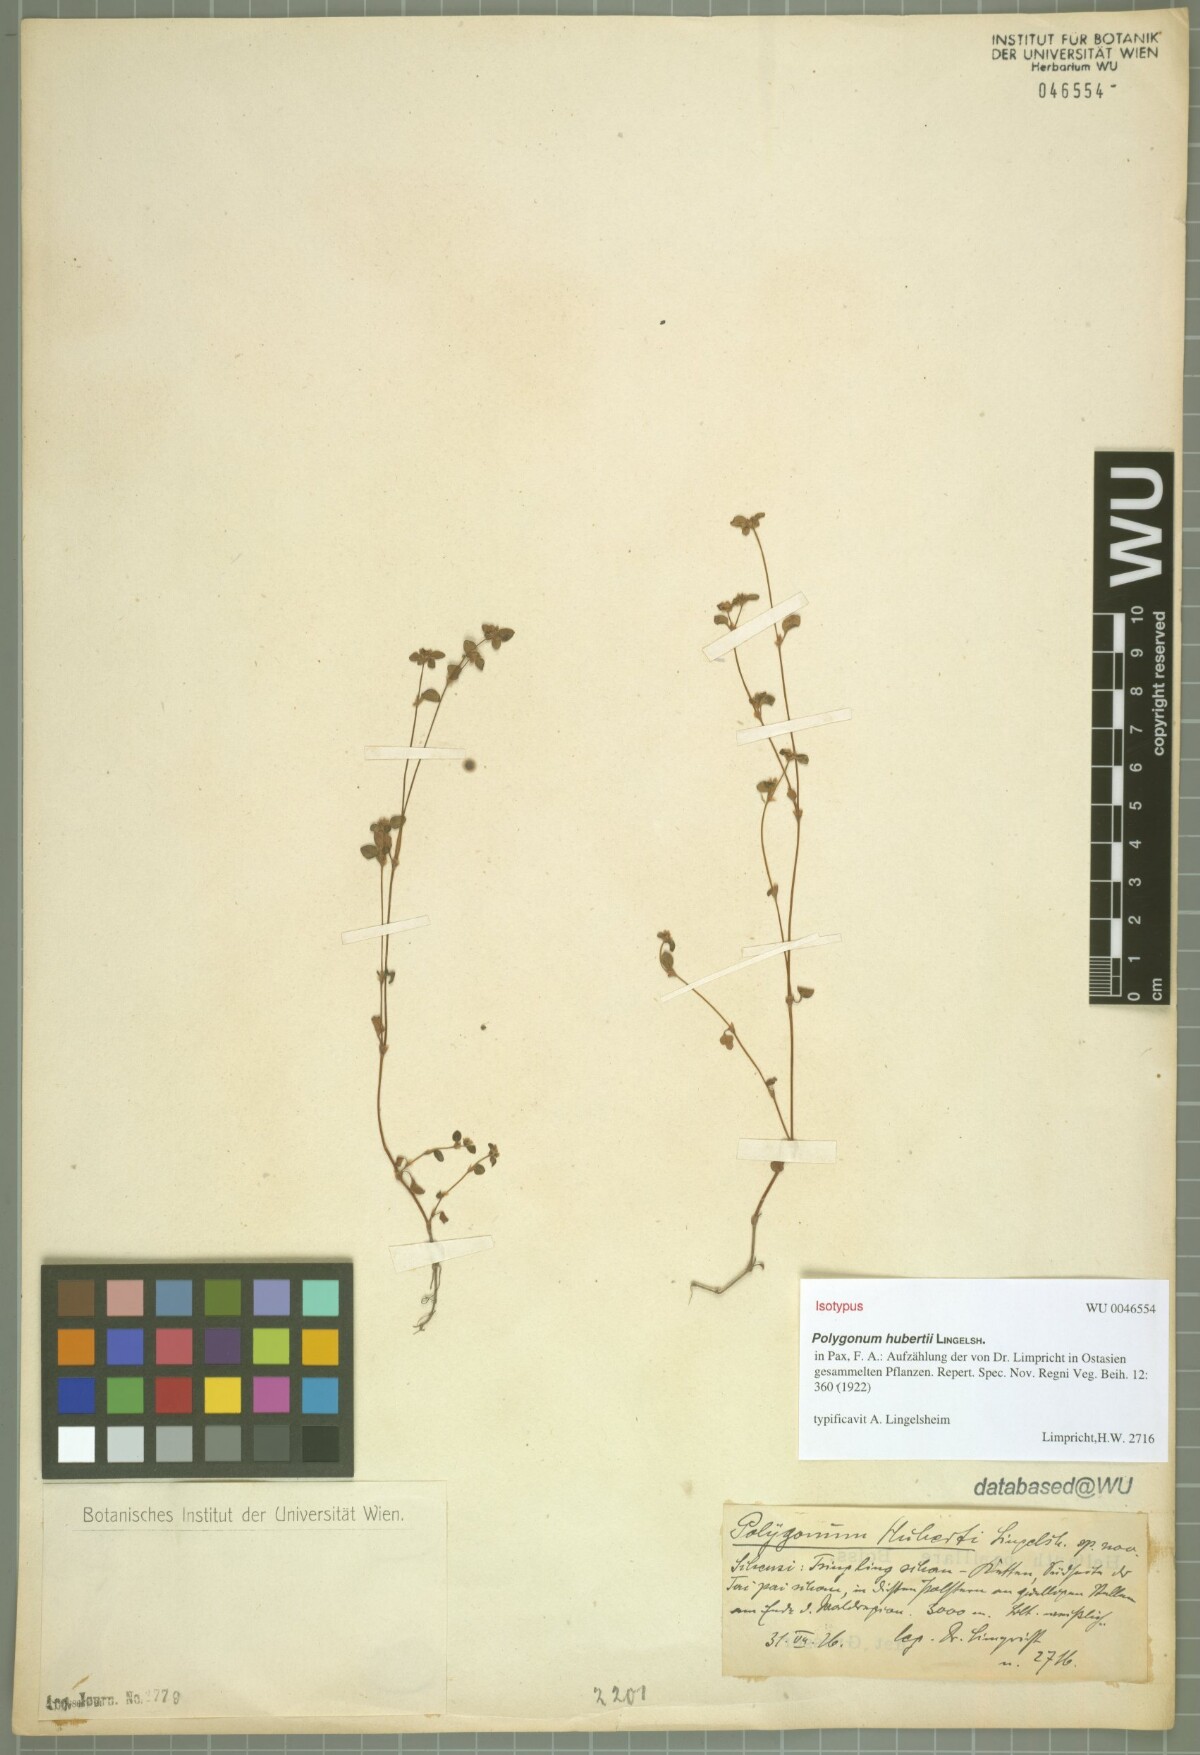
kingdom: Plantae
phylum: Tracheophyta
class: Magnoliopsida
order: Caryophyllales
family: Polygonaceae
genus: Koenigia
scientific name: Koenigia pilosa
